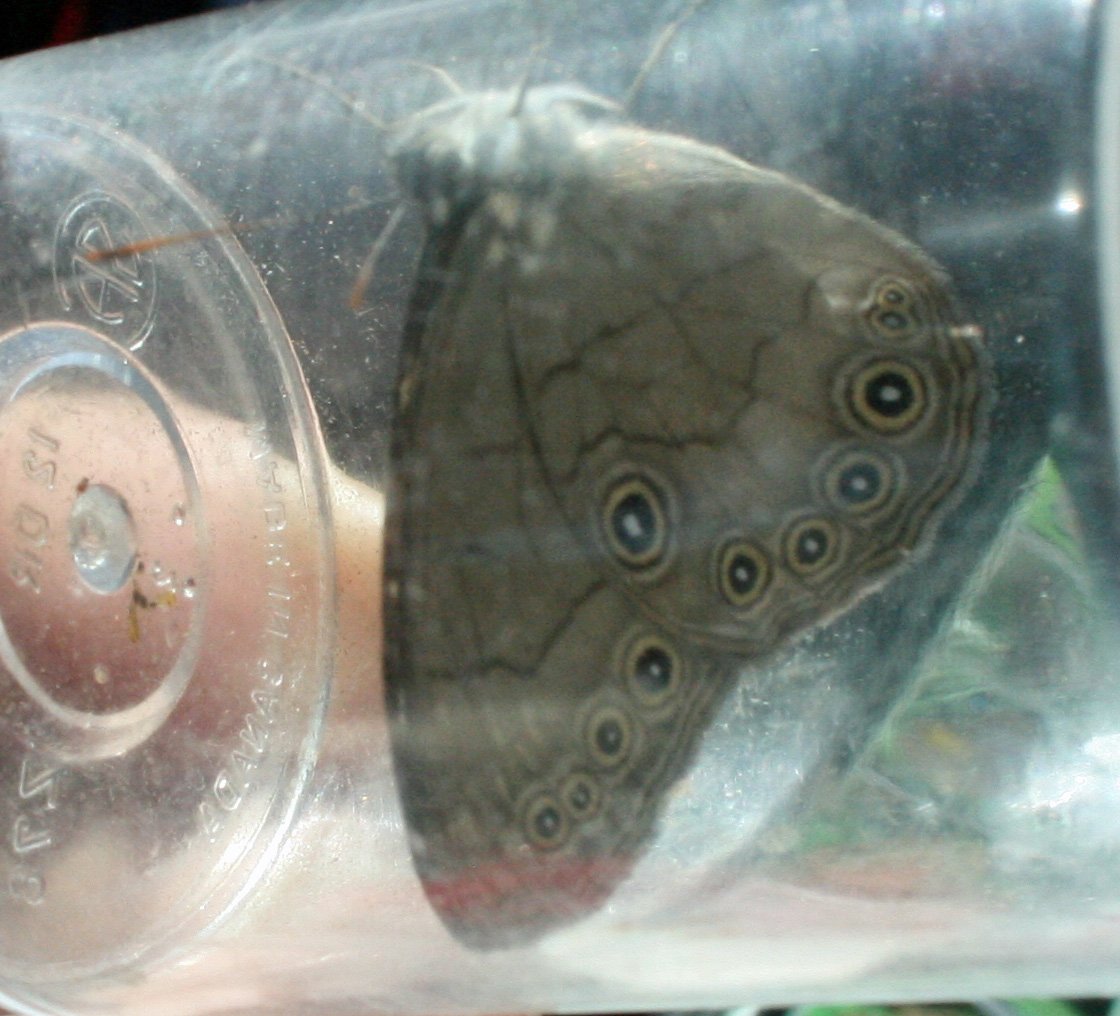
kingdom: Animalia
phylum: Arthropoda
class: Insecta
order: Lepidoptera
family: Nymphalidae
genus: Lethe
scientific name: Lethe eurydice
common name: Appalachian Eyed Brown
